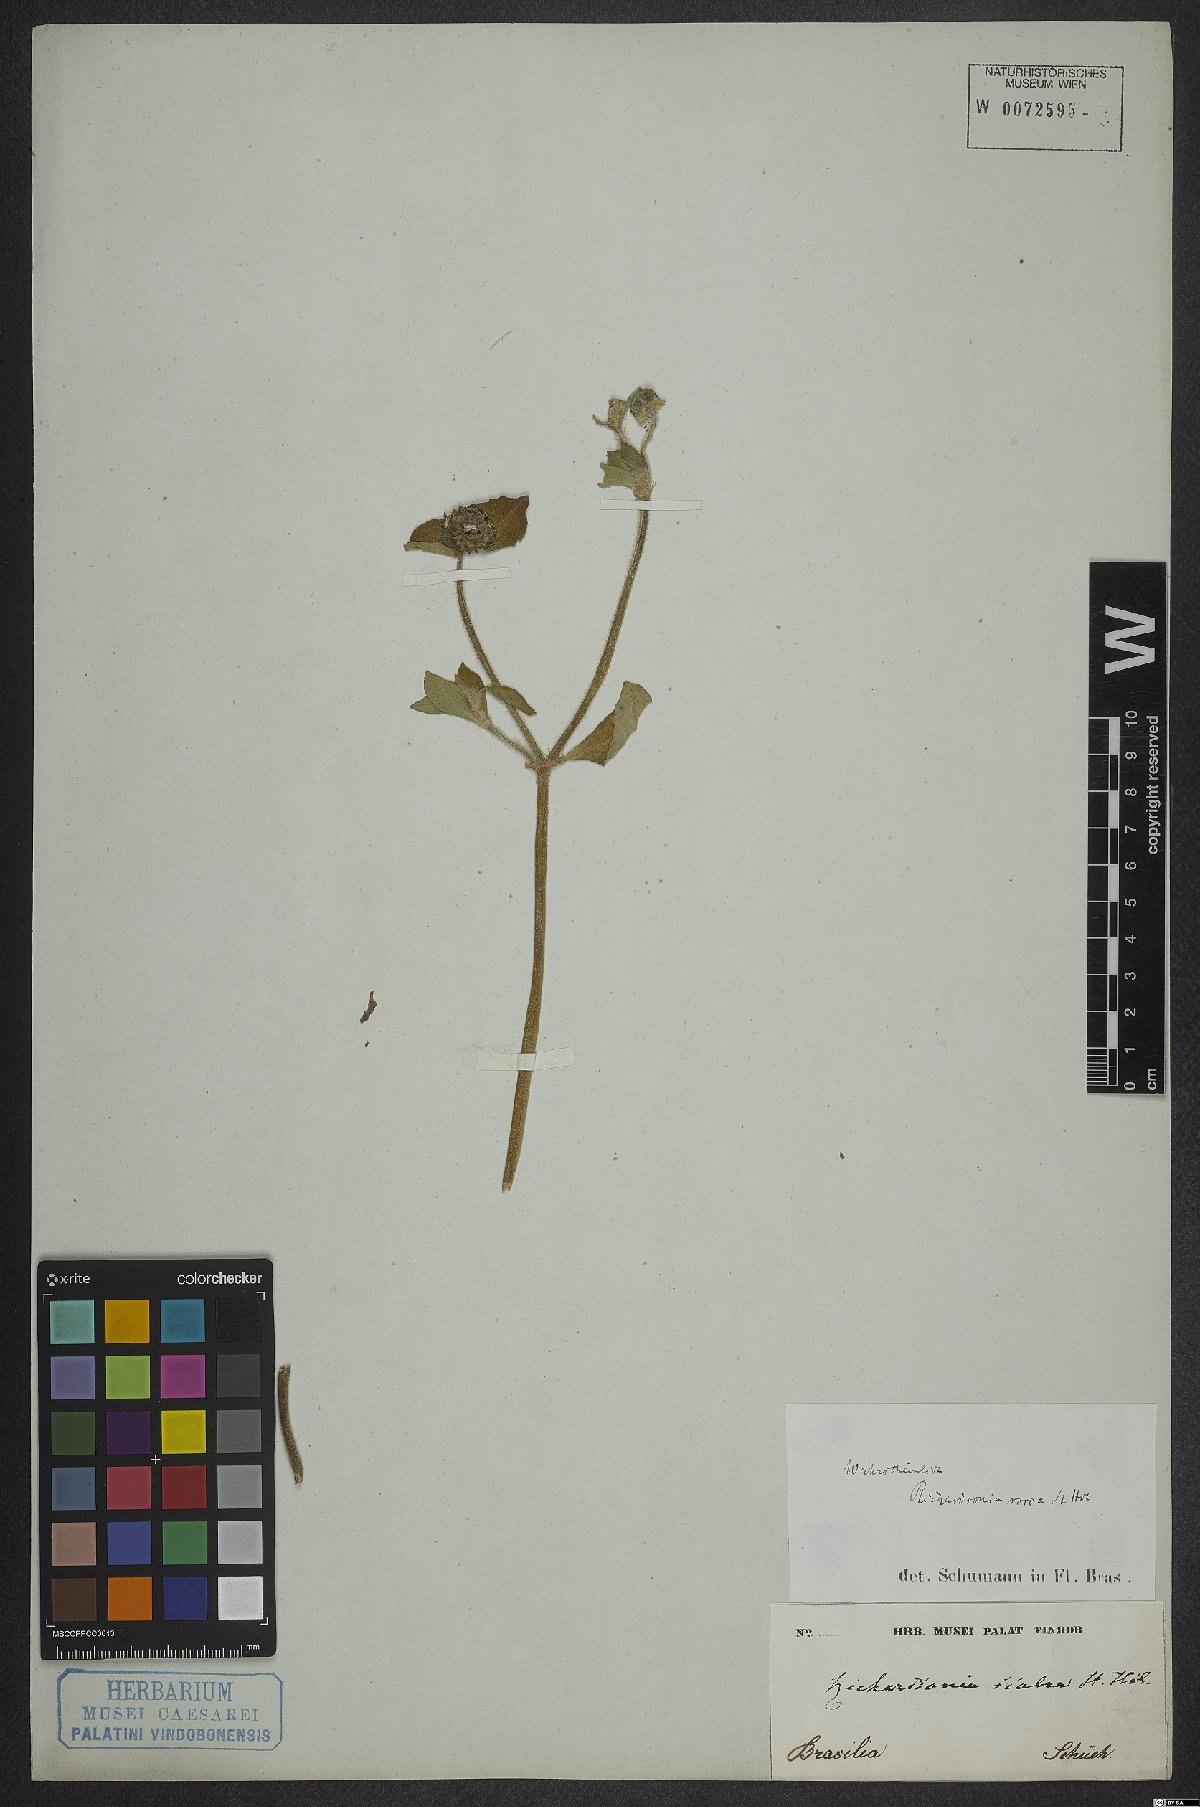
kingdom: Plantae
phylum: Tracheophyta
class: Magnoliopsida
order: Gentianales
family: Rubiaceae
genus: Richardia
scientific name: Richardia brasiliensis
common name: Tropical mexican clover
